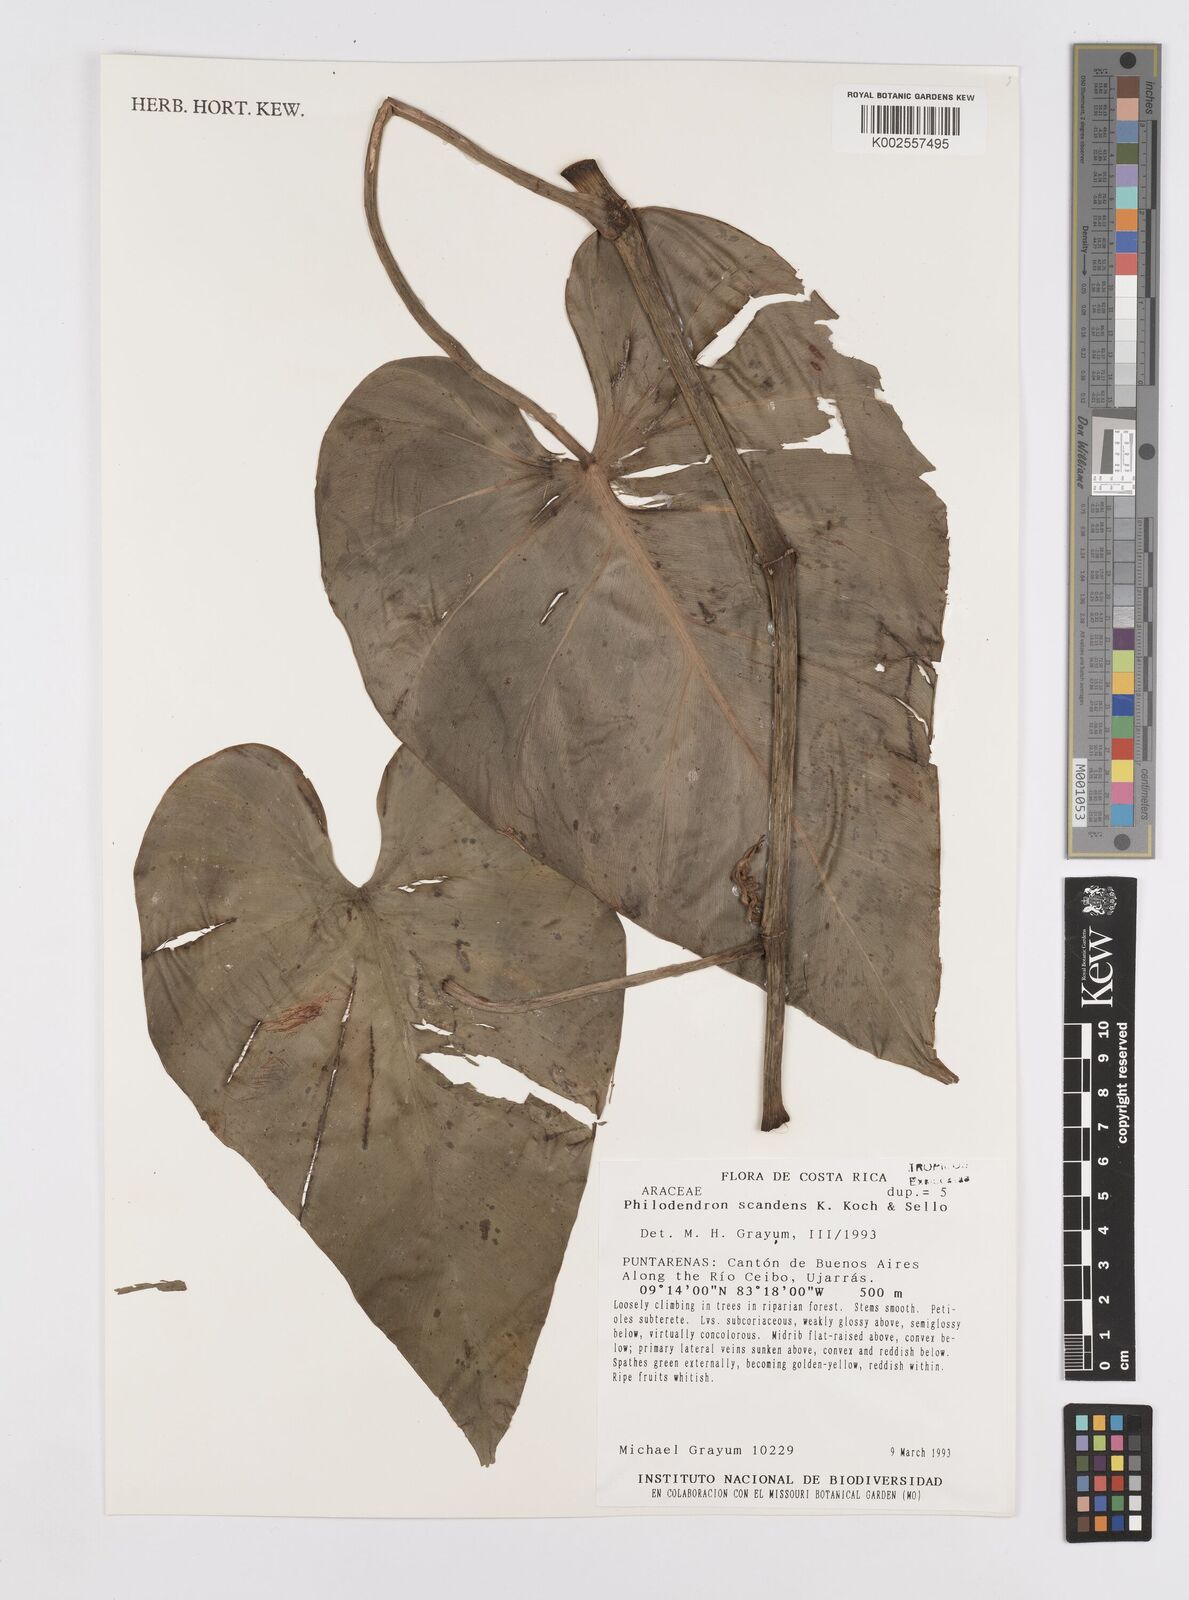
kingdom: Plantae
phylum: Tracheophyta
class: Liliopsida
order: Alismatales
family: Araceae
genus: Philodendron
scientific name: Philodendron hederaceum
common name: Vilevine
